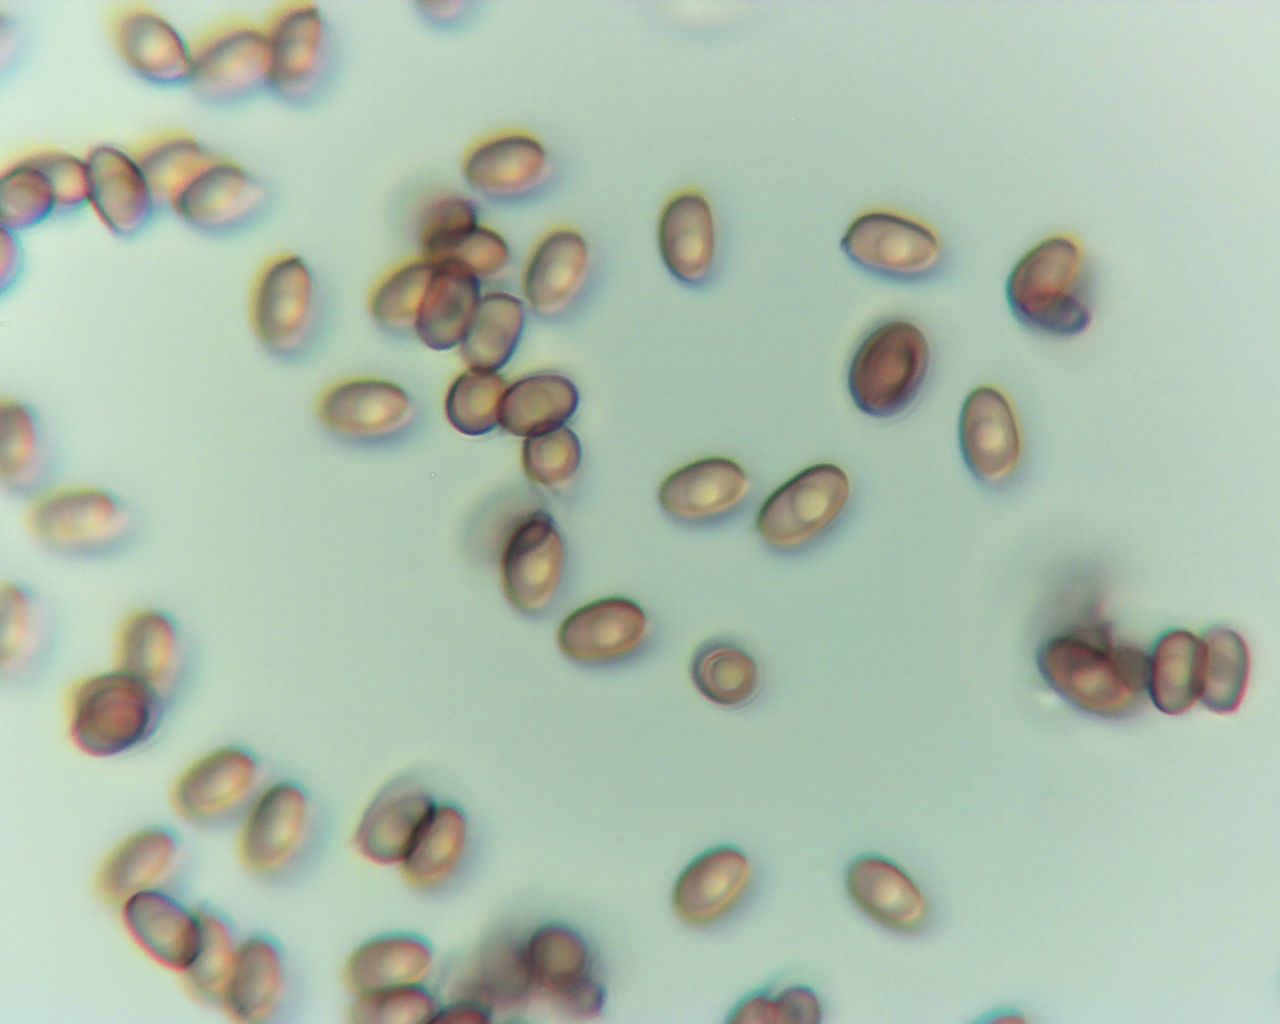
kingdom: Fungi
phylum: Basidiomycota
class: Agaricomycetes
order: Agaricales
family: Agaricaceae
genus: Agaricus
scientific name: Agaricus impudicus
